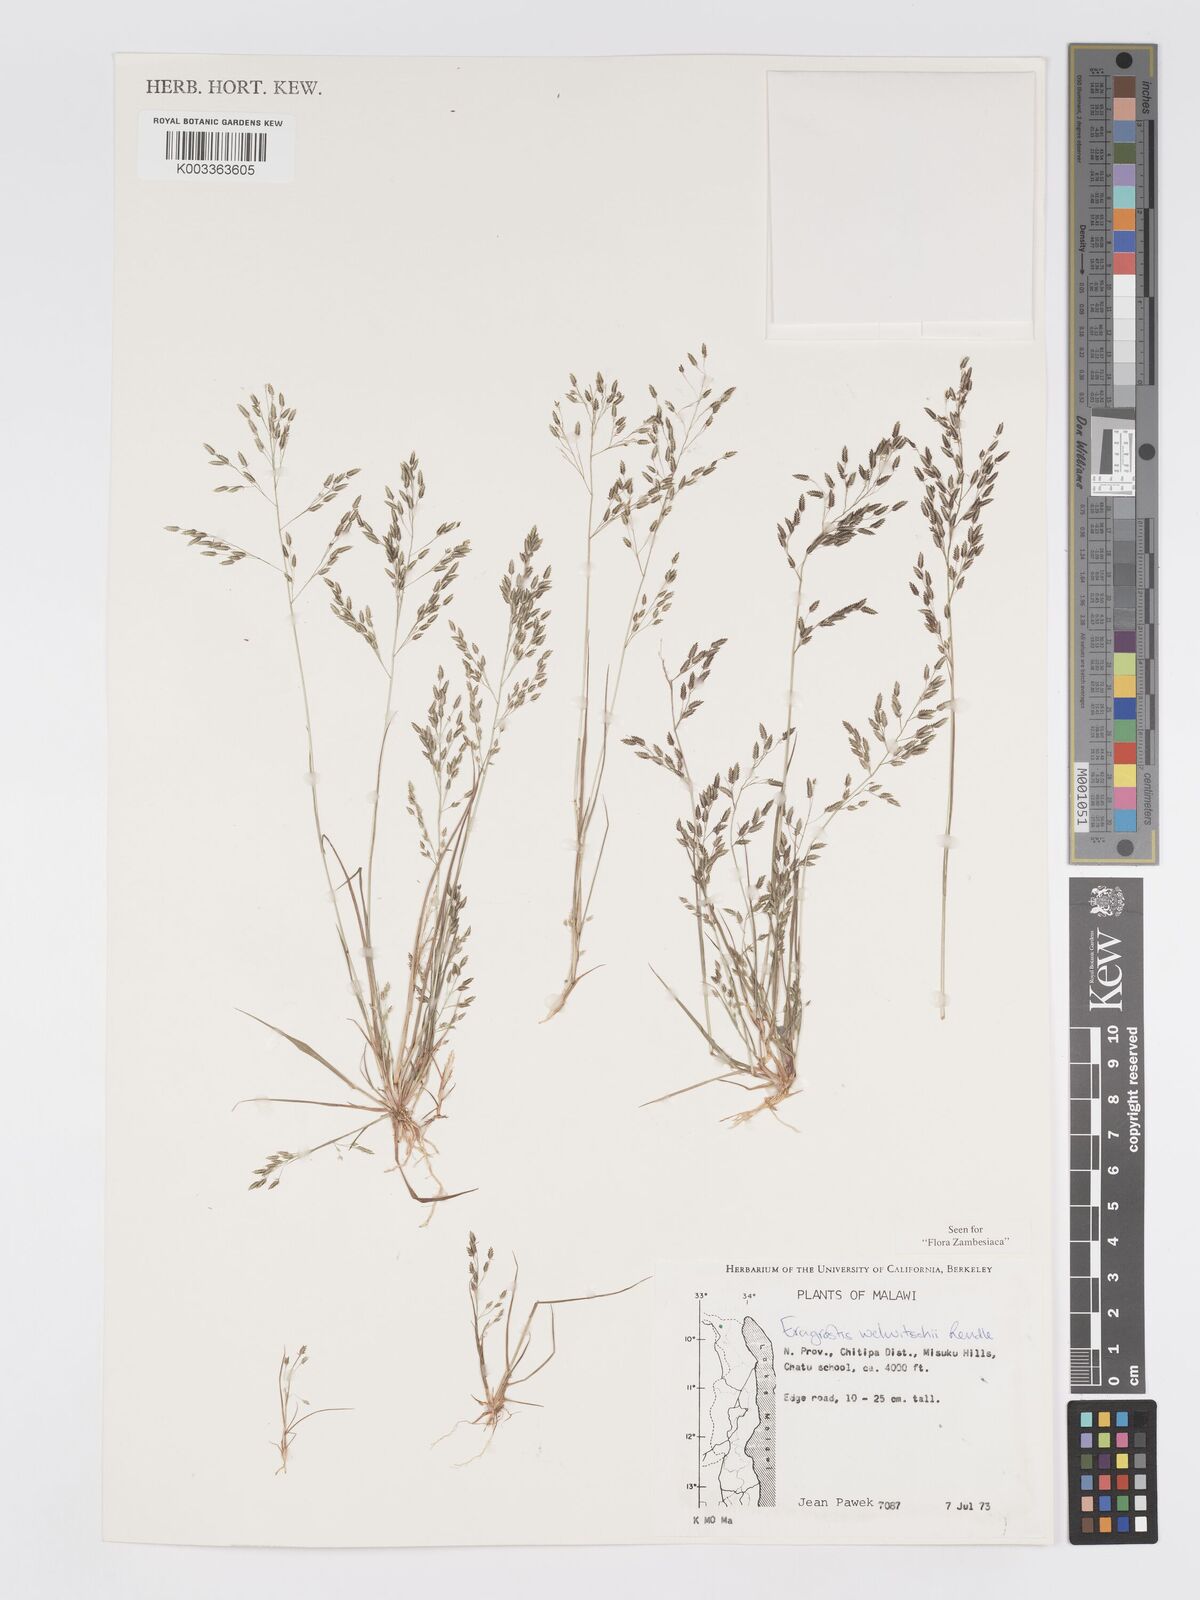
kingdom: Plantae
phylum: Tracheophyta
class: Liliopsida
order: Poales
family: Poaceae
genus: Eragrostis
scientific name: Eragrostis welwitschii
